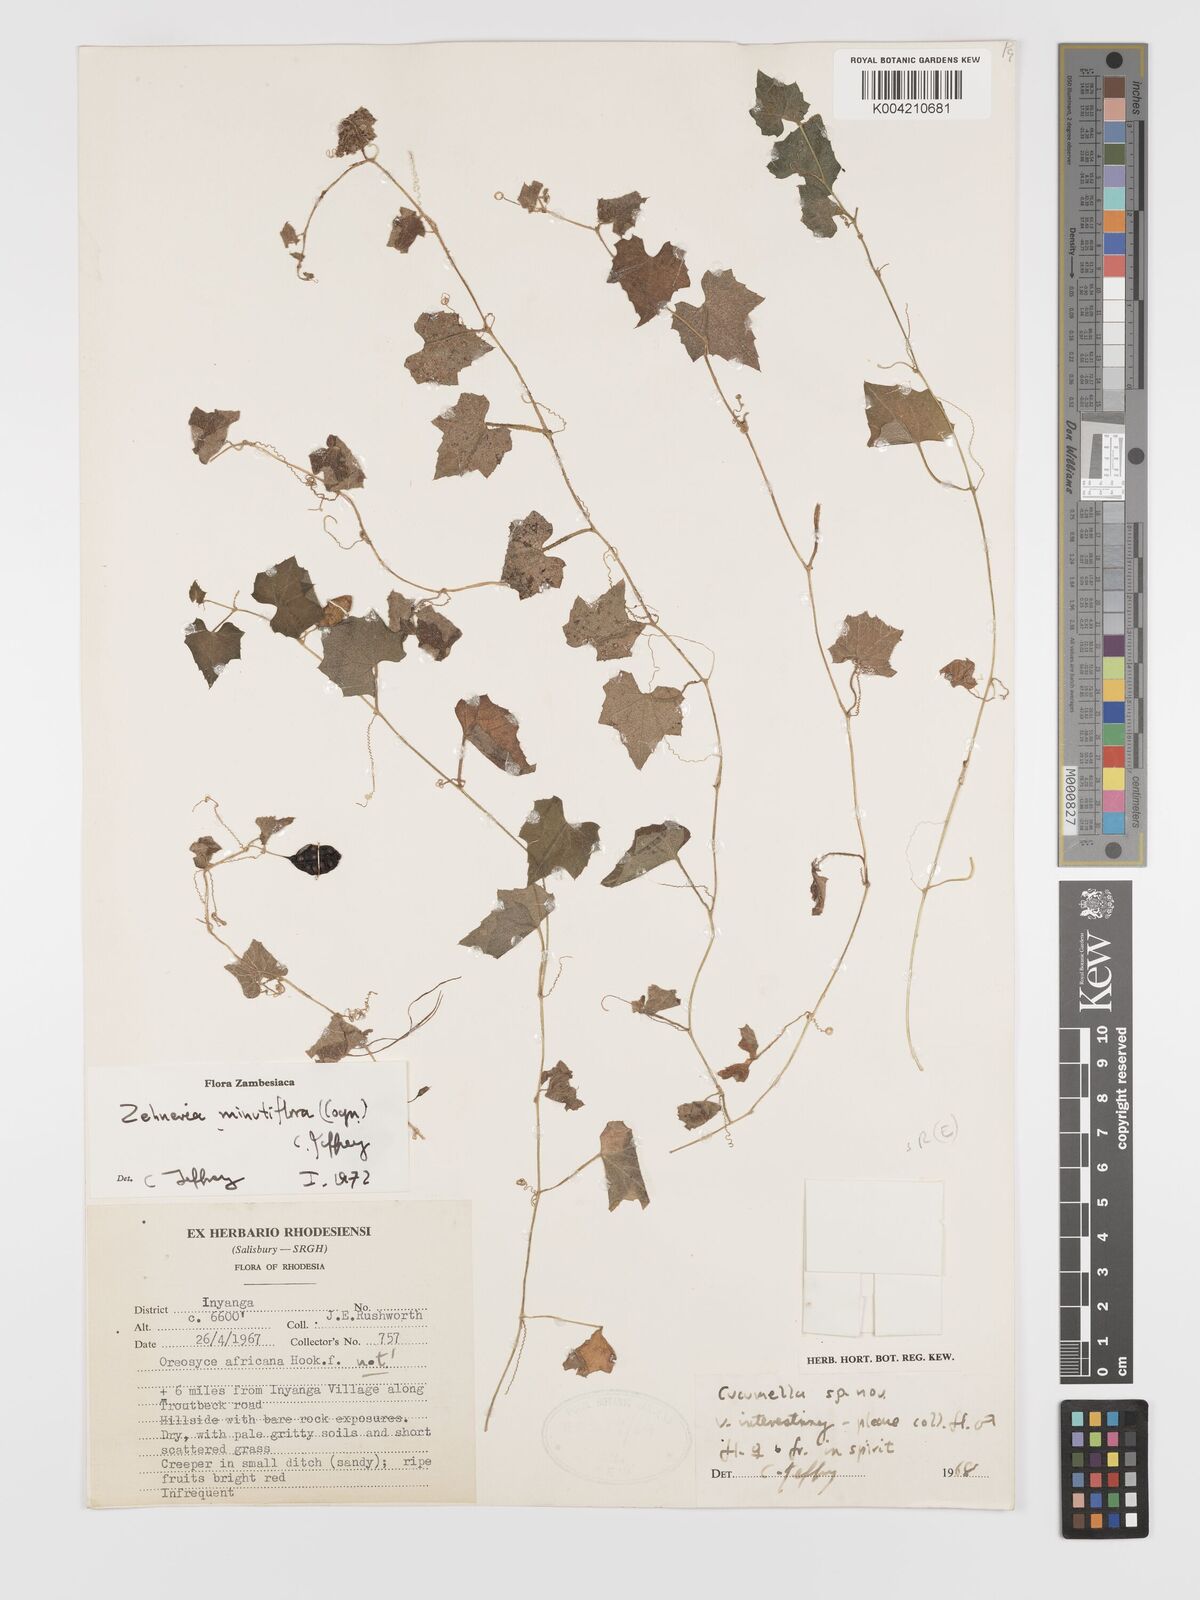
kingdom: Plantae
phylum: Tracheophyta
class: Magnoliopsida
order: Cucurbitales
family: Cucurbitaceae
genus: Zehneria
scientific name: Zehneria minutiflora
